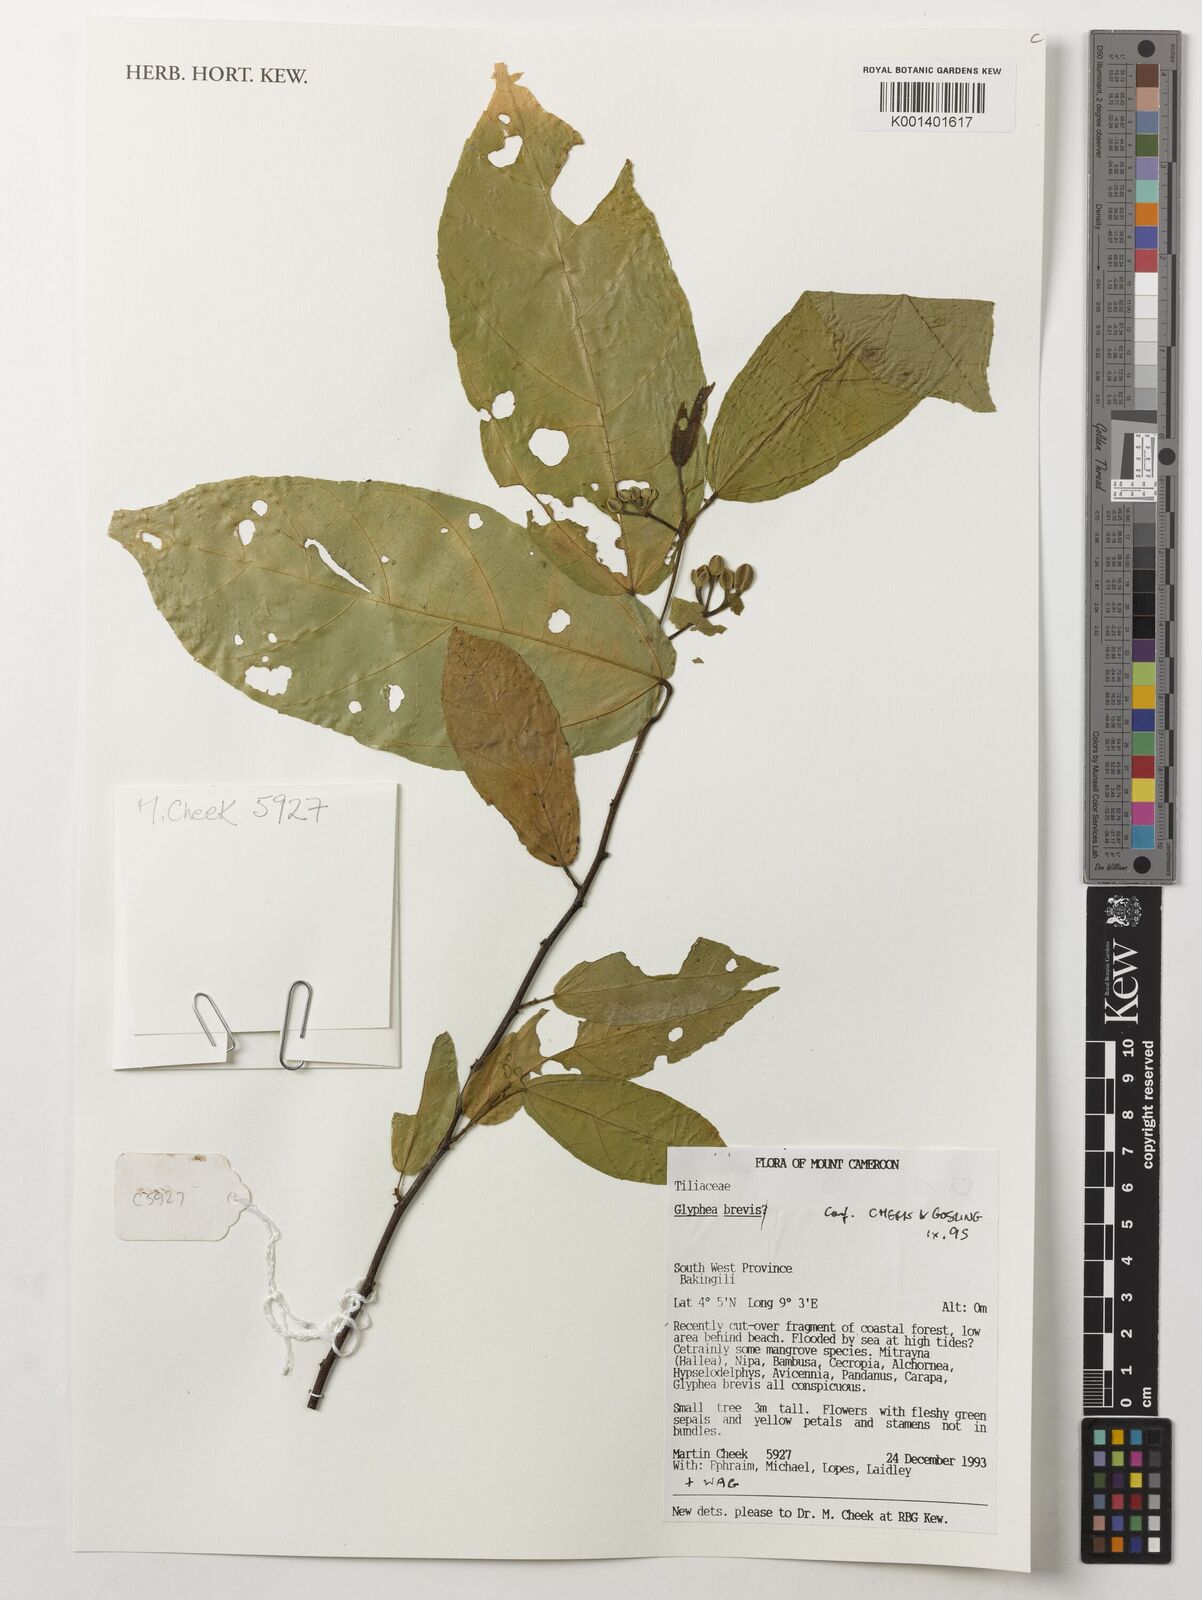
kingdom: Plantae
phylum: Tracheophyta
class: Magnoliopsida
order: Malvales
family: Malvaceae
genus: Glyphaea
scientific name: Glyphaea brevis
